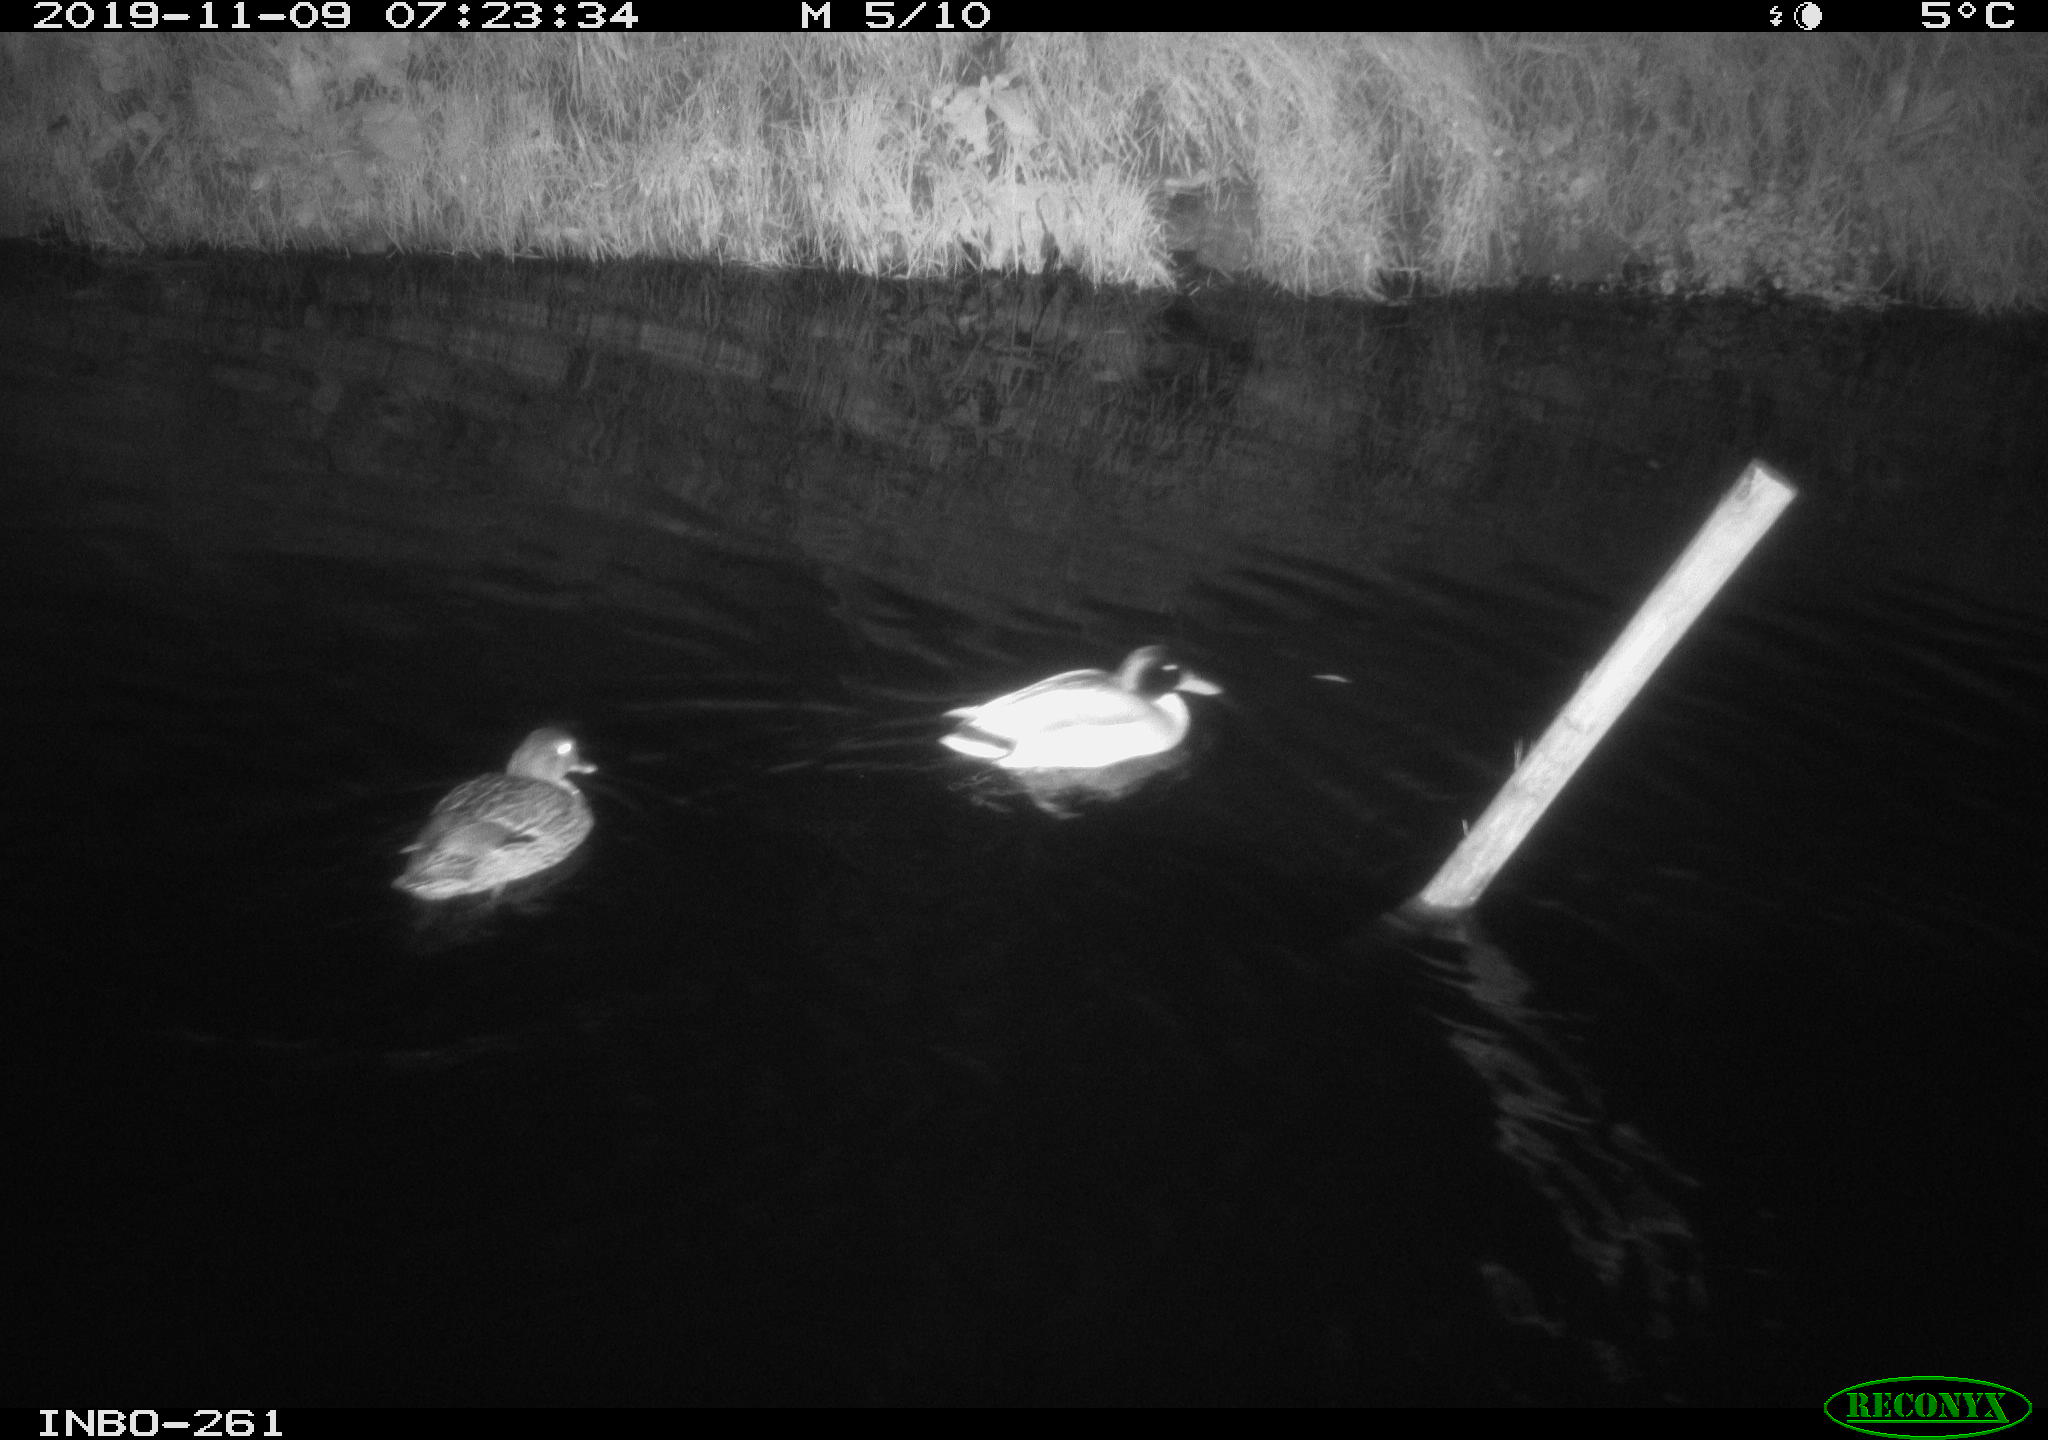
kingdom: Animalia
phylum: Chordata
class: Aves
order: Anseriformes
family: Anatidae
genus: Anas
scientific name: Anas platyrhynchos
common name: Mallard
